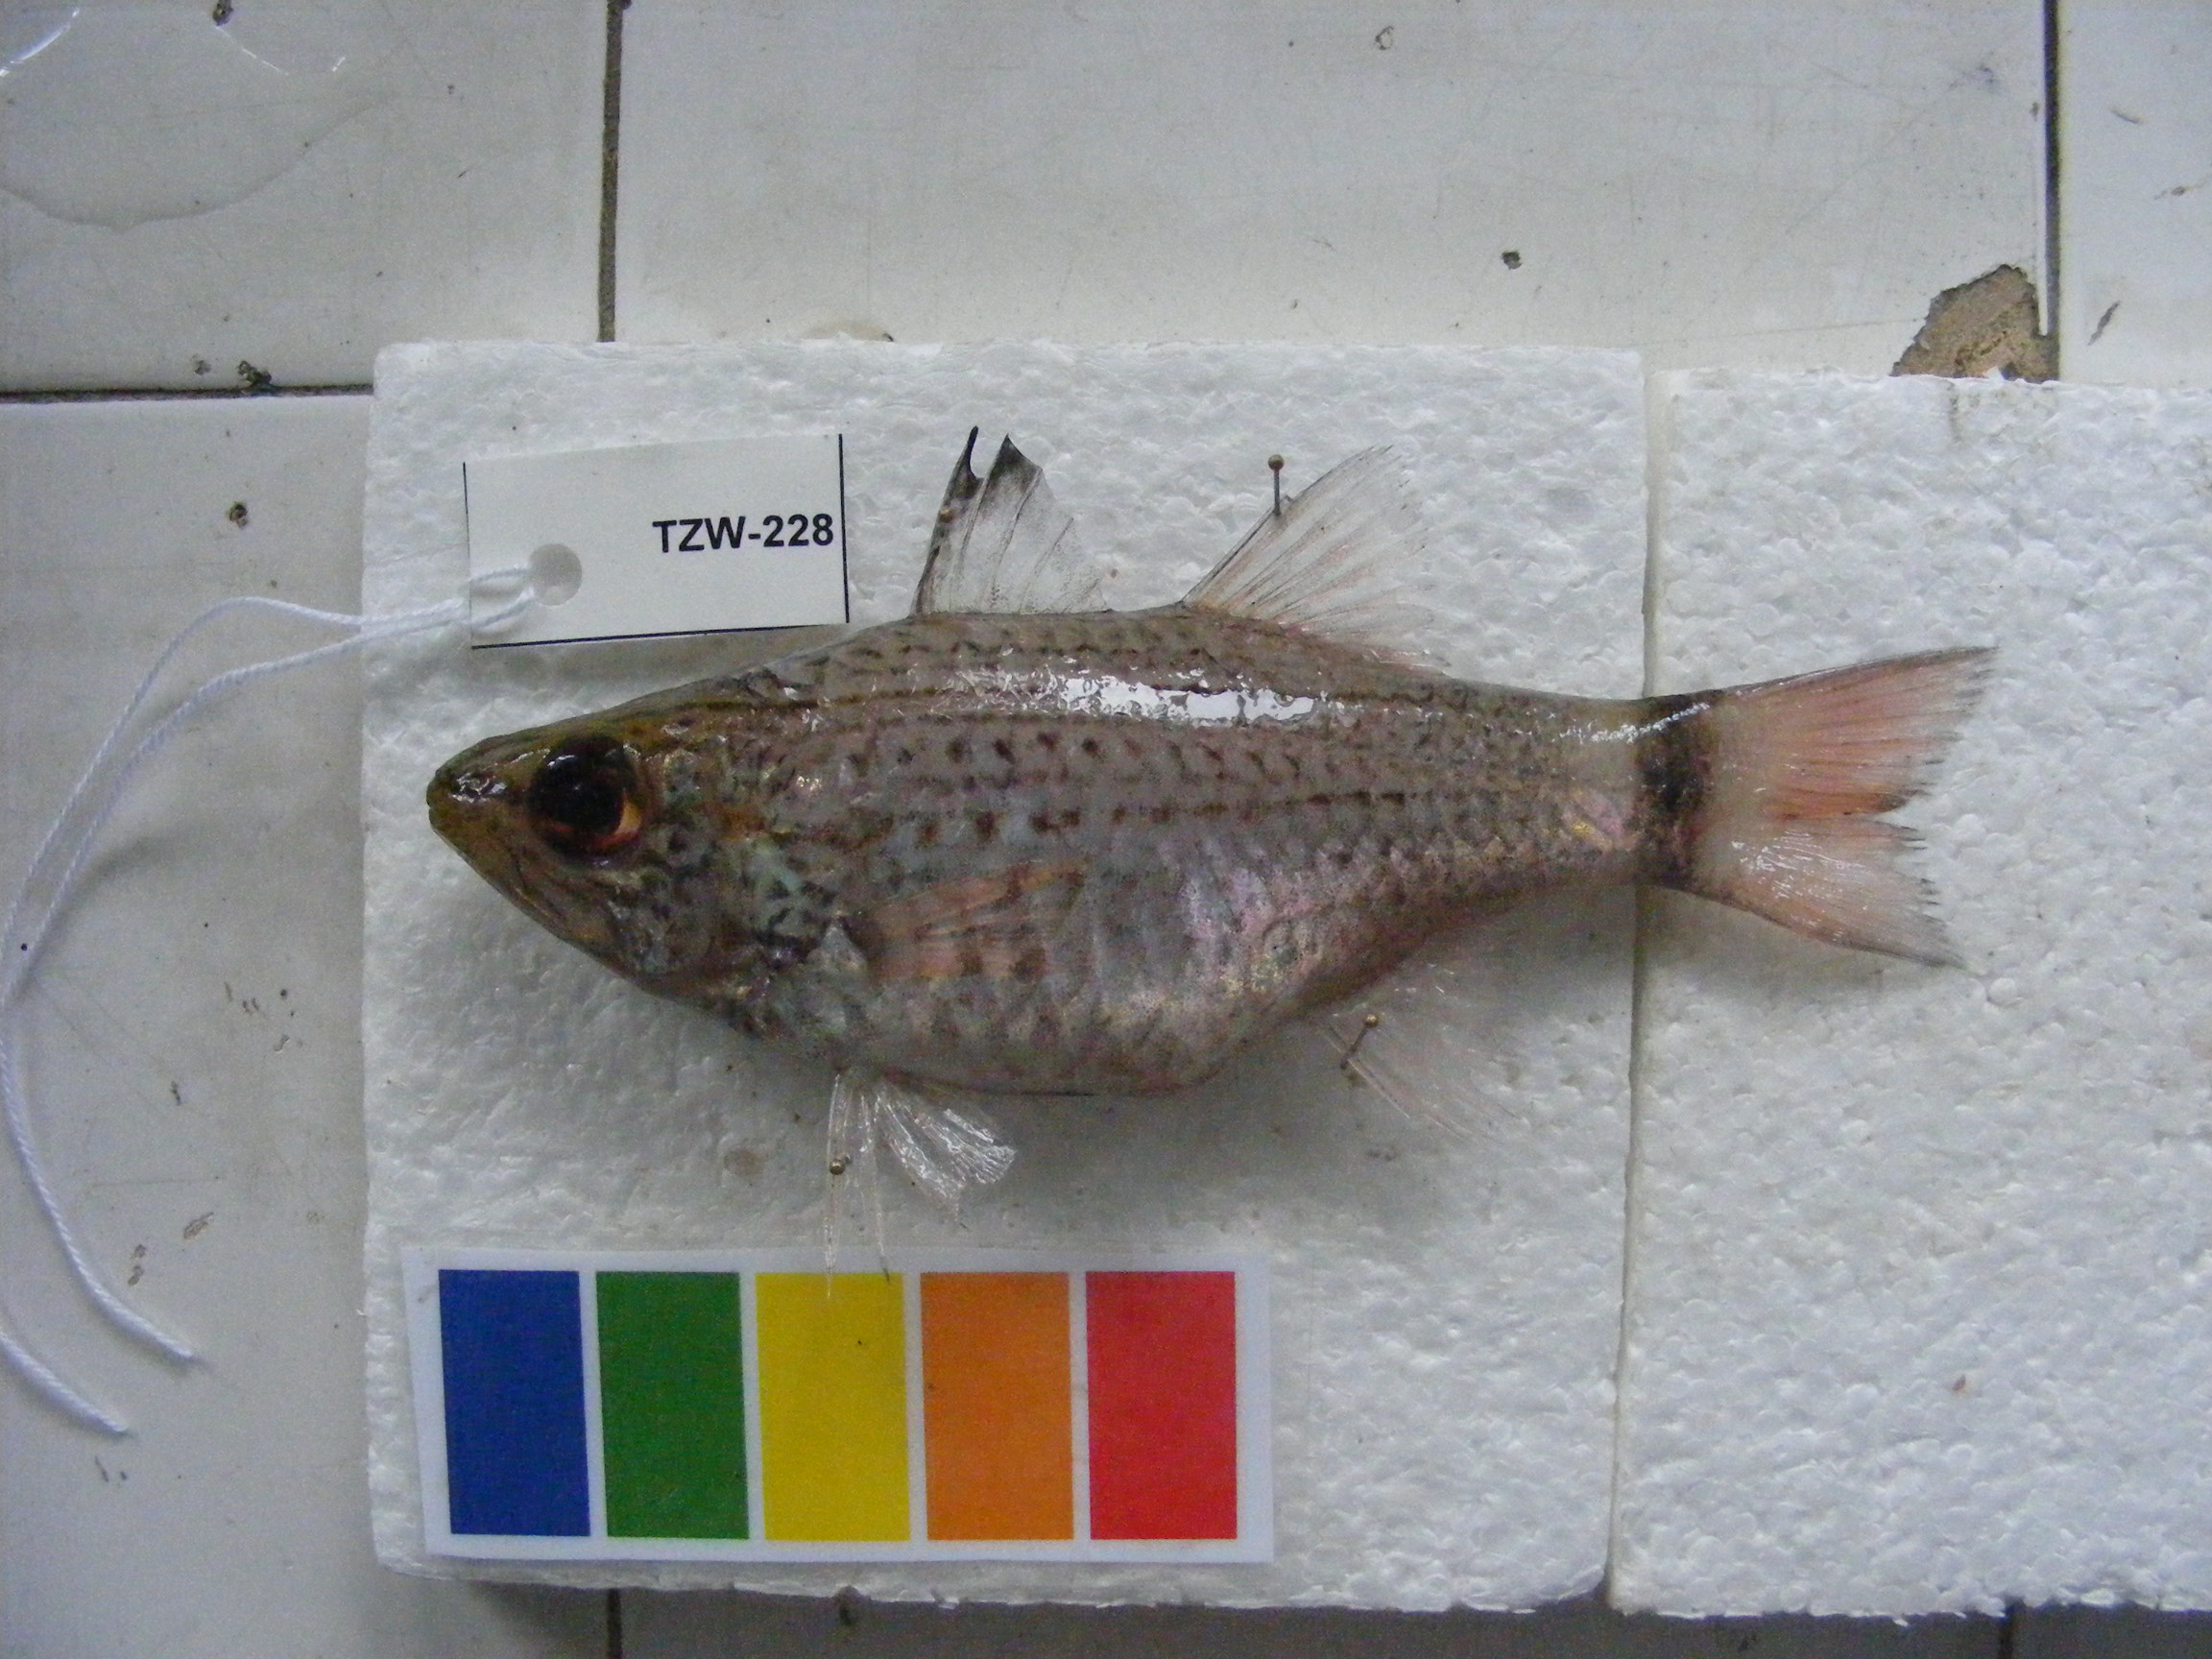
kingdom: Animalia
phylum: Chordata
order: Perciformes
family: Apogonidae
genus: Cheilodipterus
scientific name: Cheilodipterus macrodon
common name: Eight-lined cardinalfish
